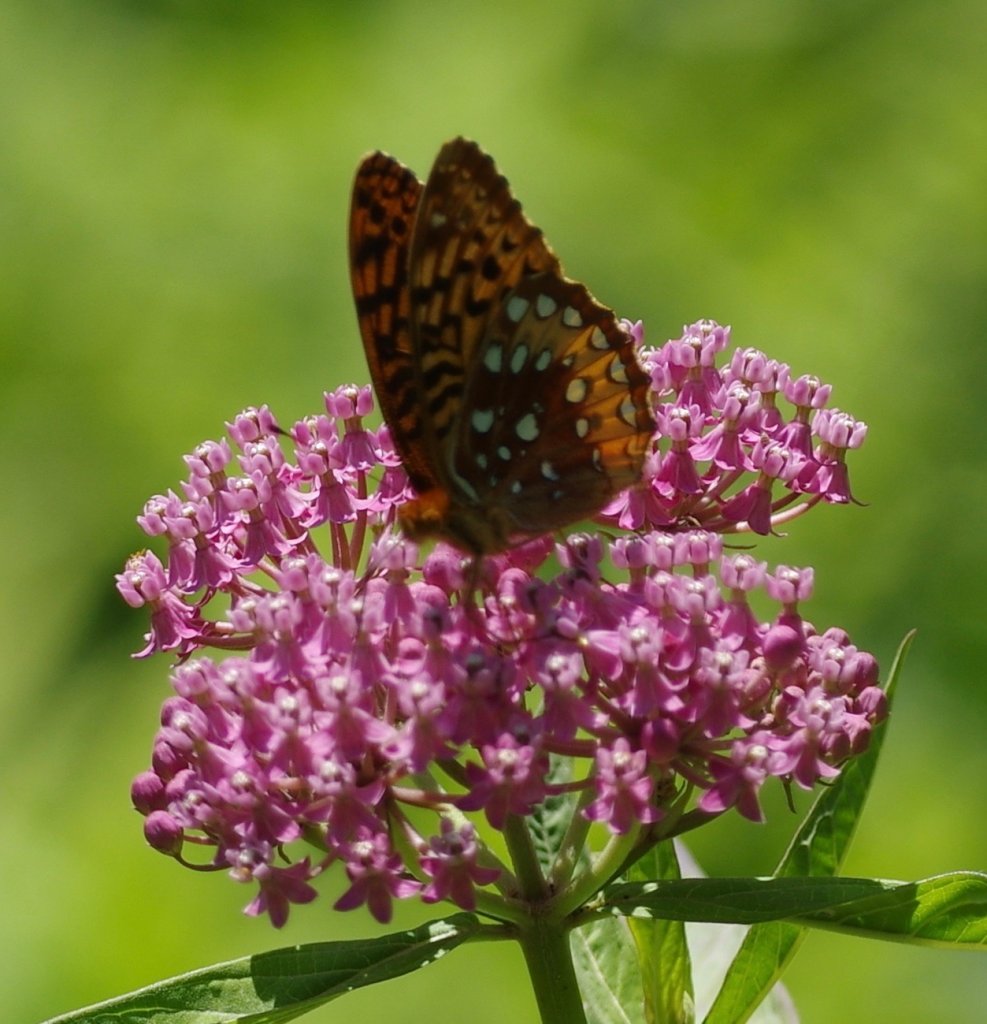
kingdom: Animalia
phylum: Arthropoda
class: Insecta
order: Lepidoptera
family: Nymphalidae
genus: Speyeria
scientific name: Speyeria cybele
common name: Great Spangled Fritillary
